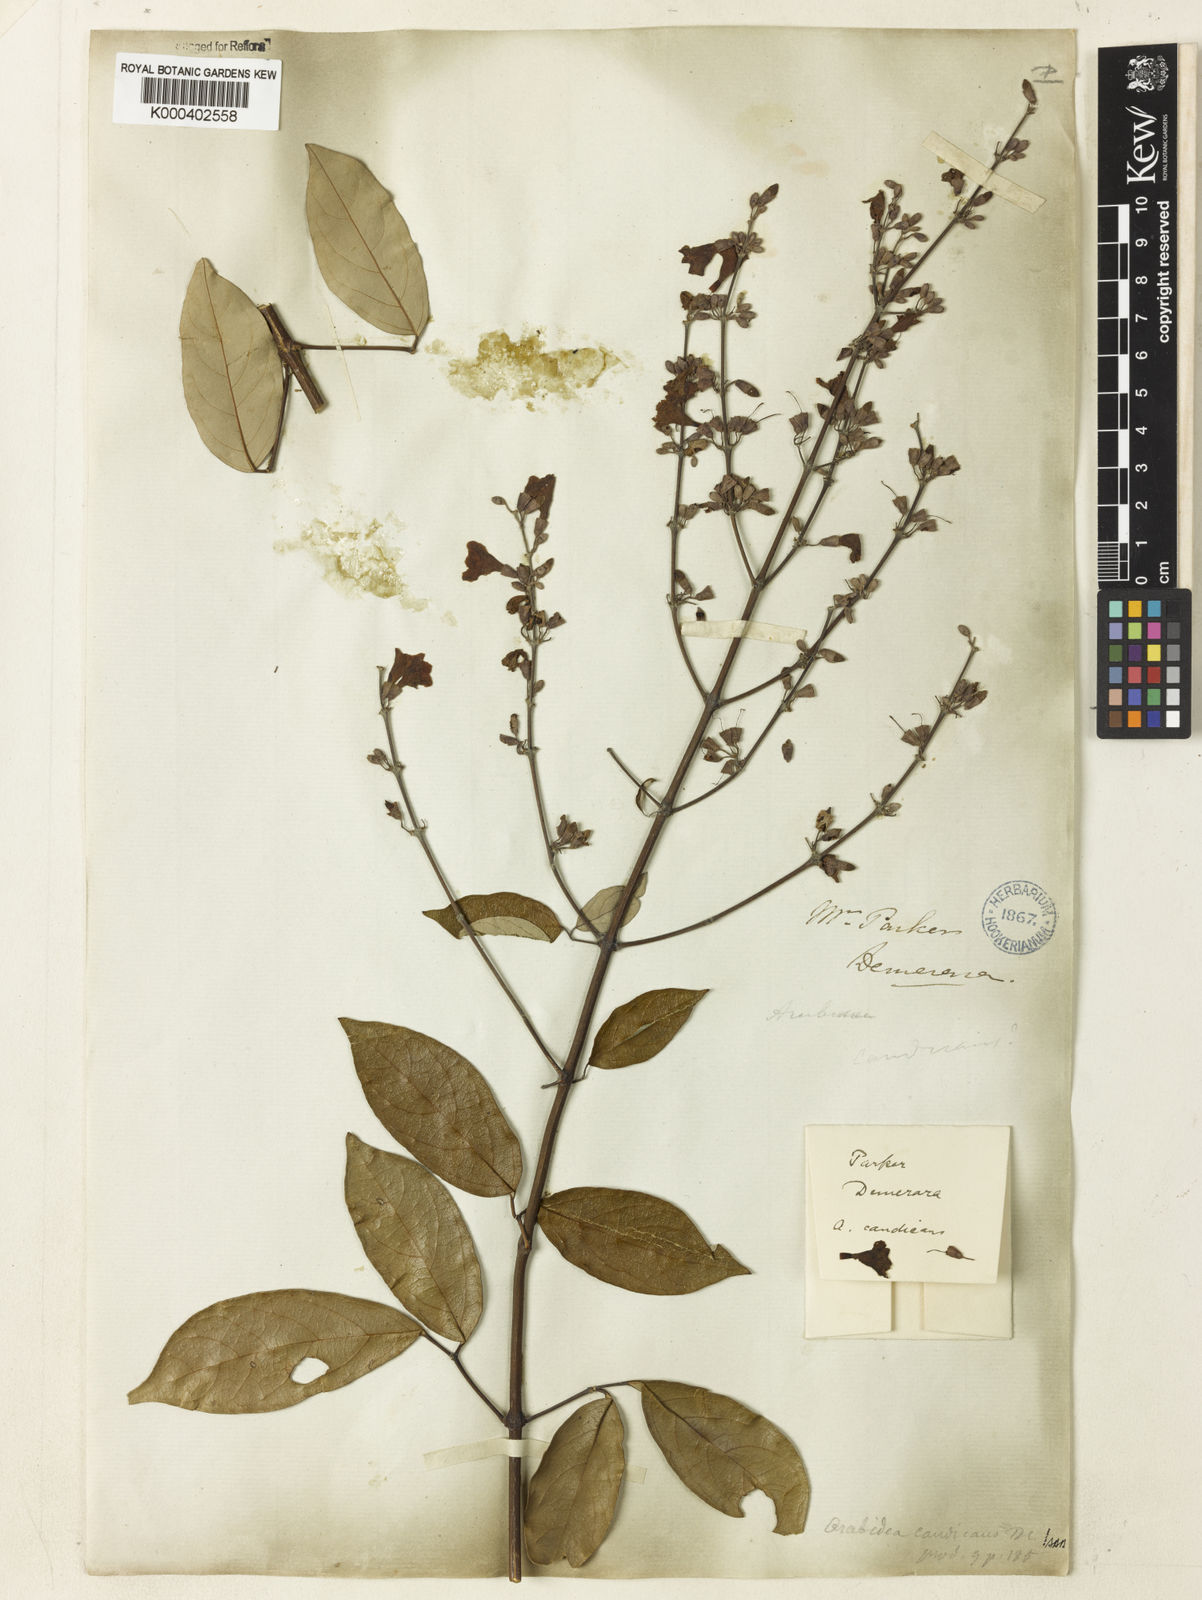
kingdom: Plantae
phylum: Tracheophyta
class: Magnoliopsida
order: Lamiales
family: Bignoniaceae
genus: Fridericia
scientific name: Fridericia candicans
